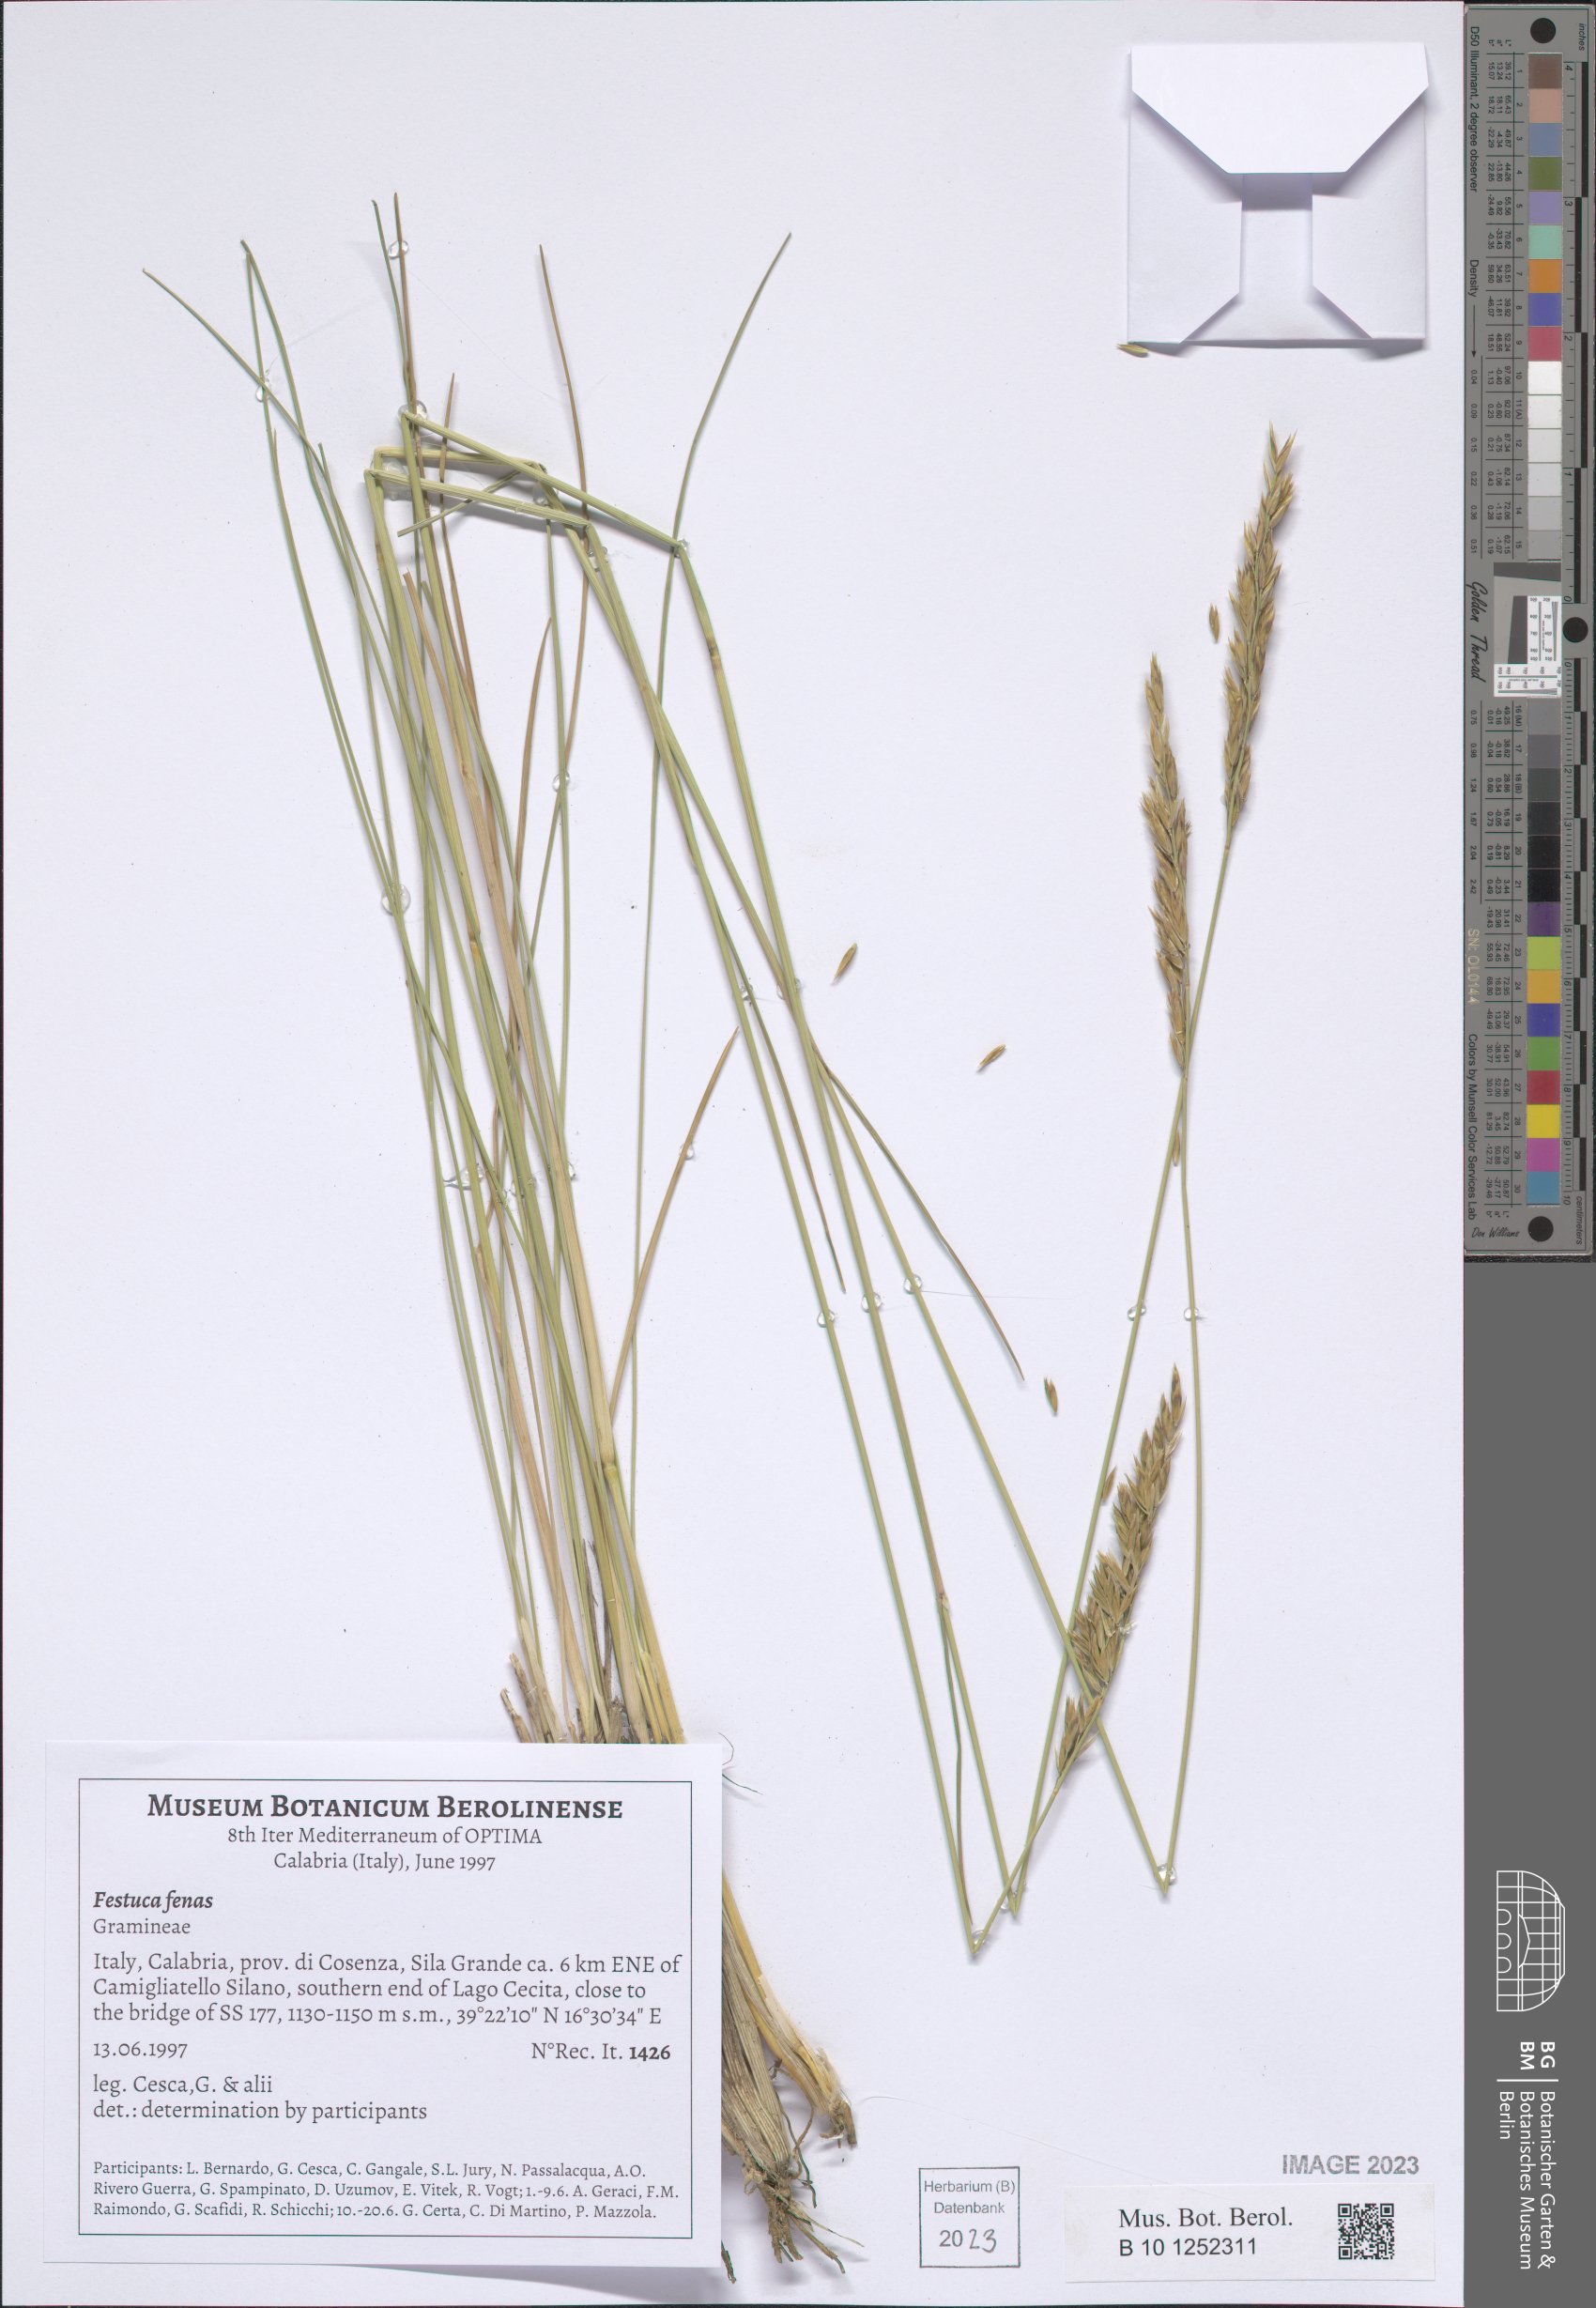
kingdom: Plantae
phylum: Tracheophyta
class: Liliopsida
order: Poales
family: Poaceae
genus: Lolium
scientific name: Lolium interruptum
